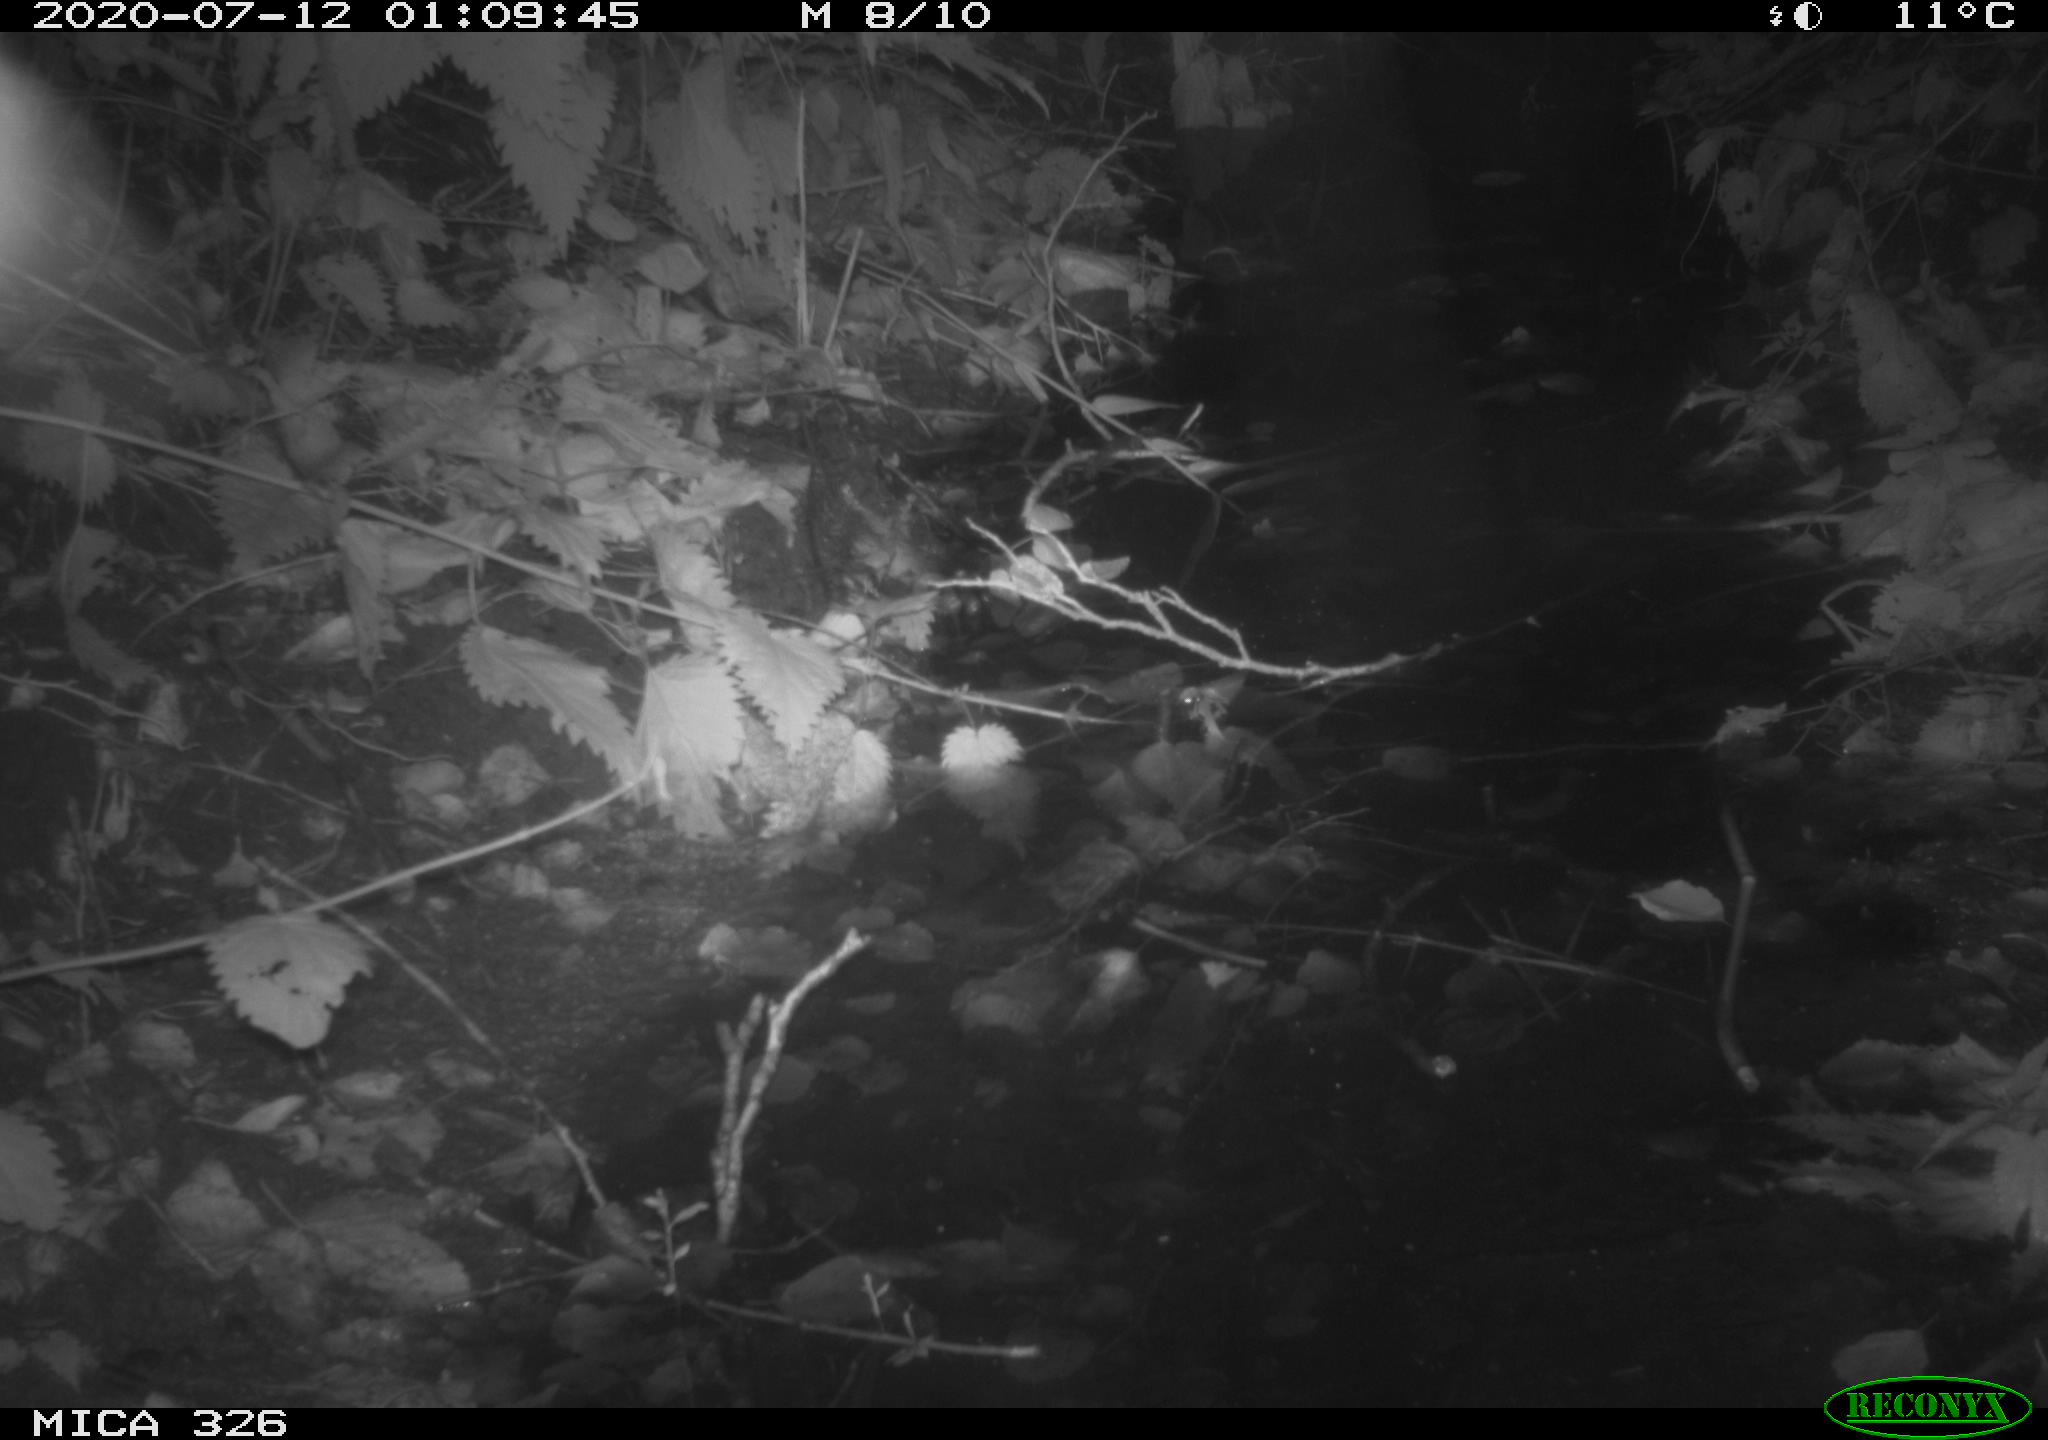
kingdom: Animalia
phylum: Chordata
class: Mammalia
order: Rodentia
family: Muridae
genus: Rattus
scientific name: Rattus norvegicus
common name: Brown rat
